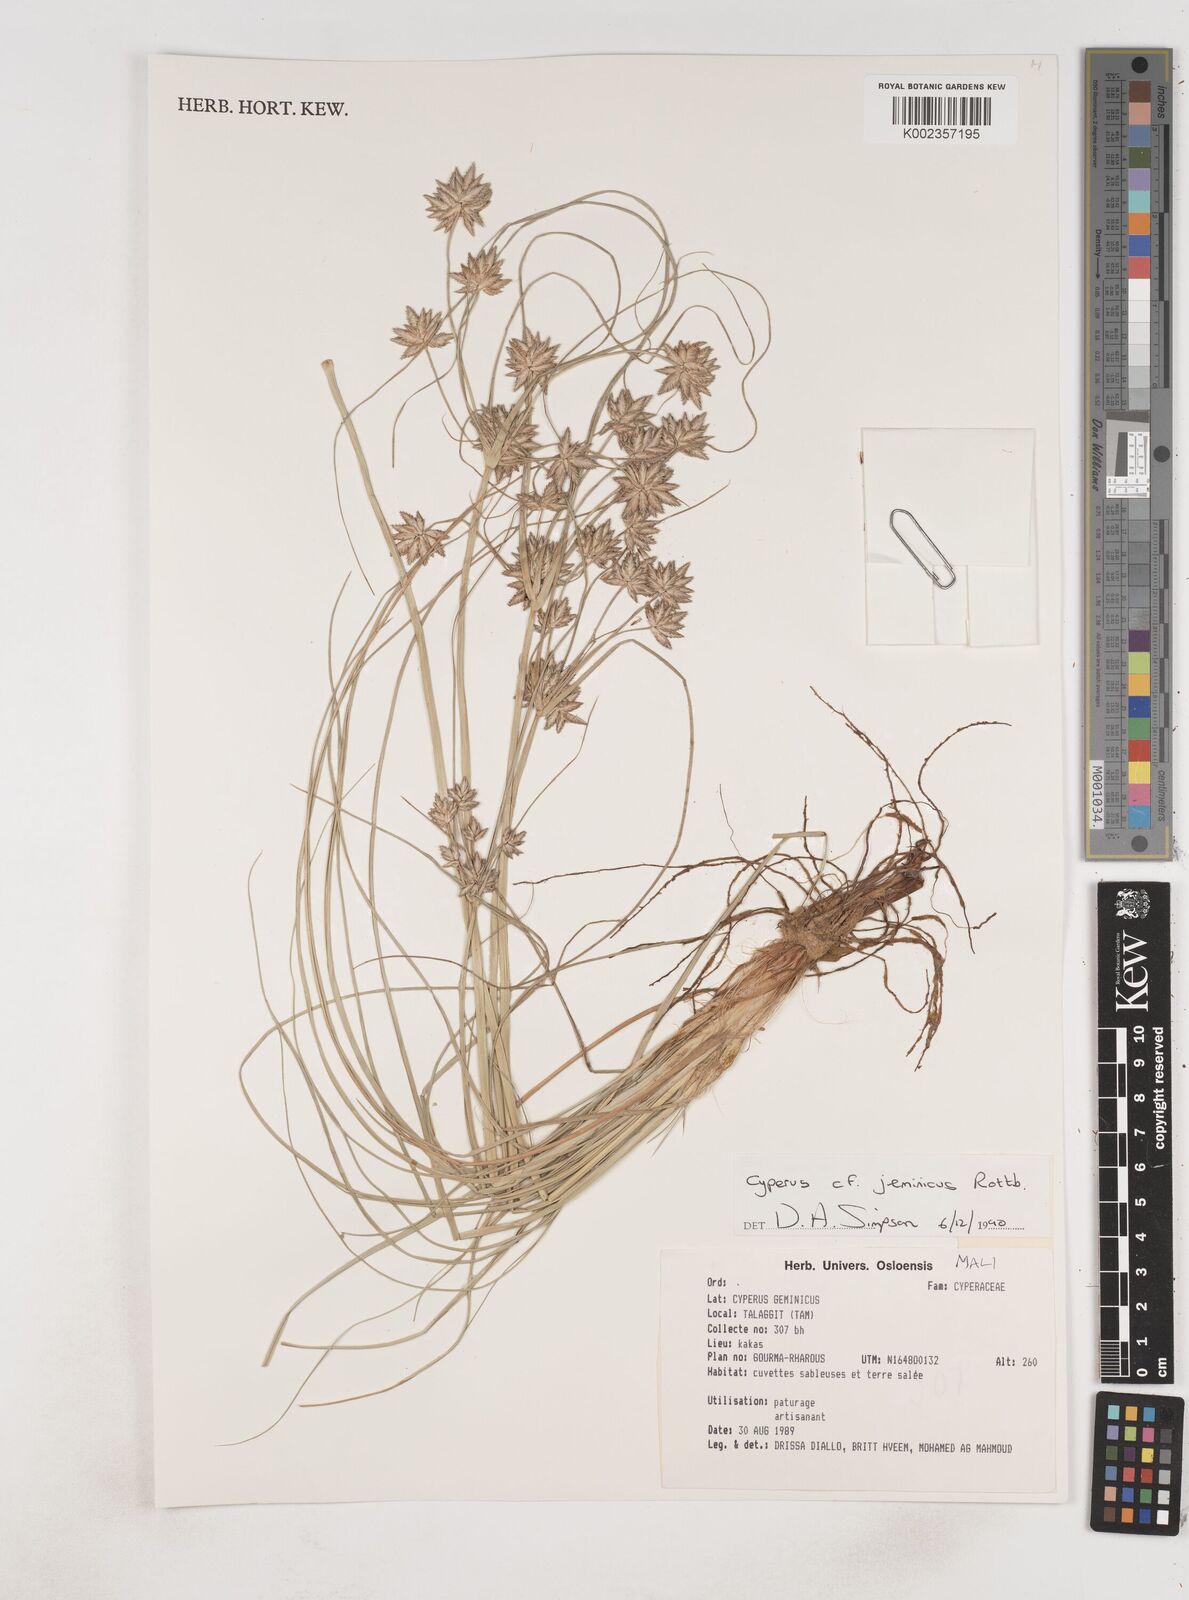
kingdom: Plantae
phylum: Tracheophyta
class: Liliopsida
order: Poales
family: Cyperaceae
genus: Cyperus
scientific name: Cyperus jeminicus
